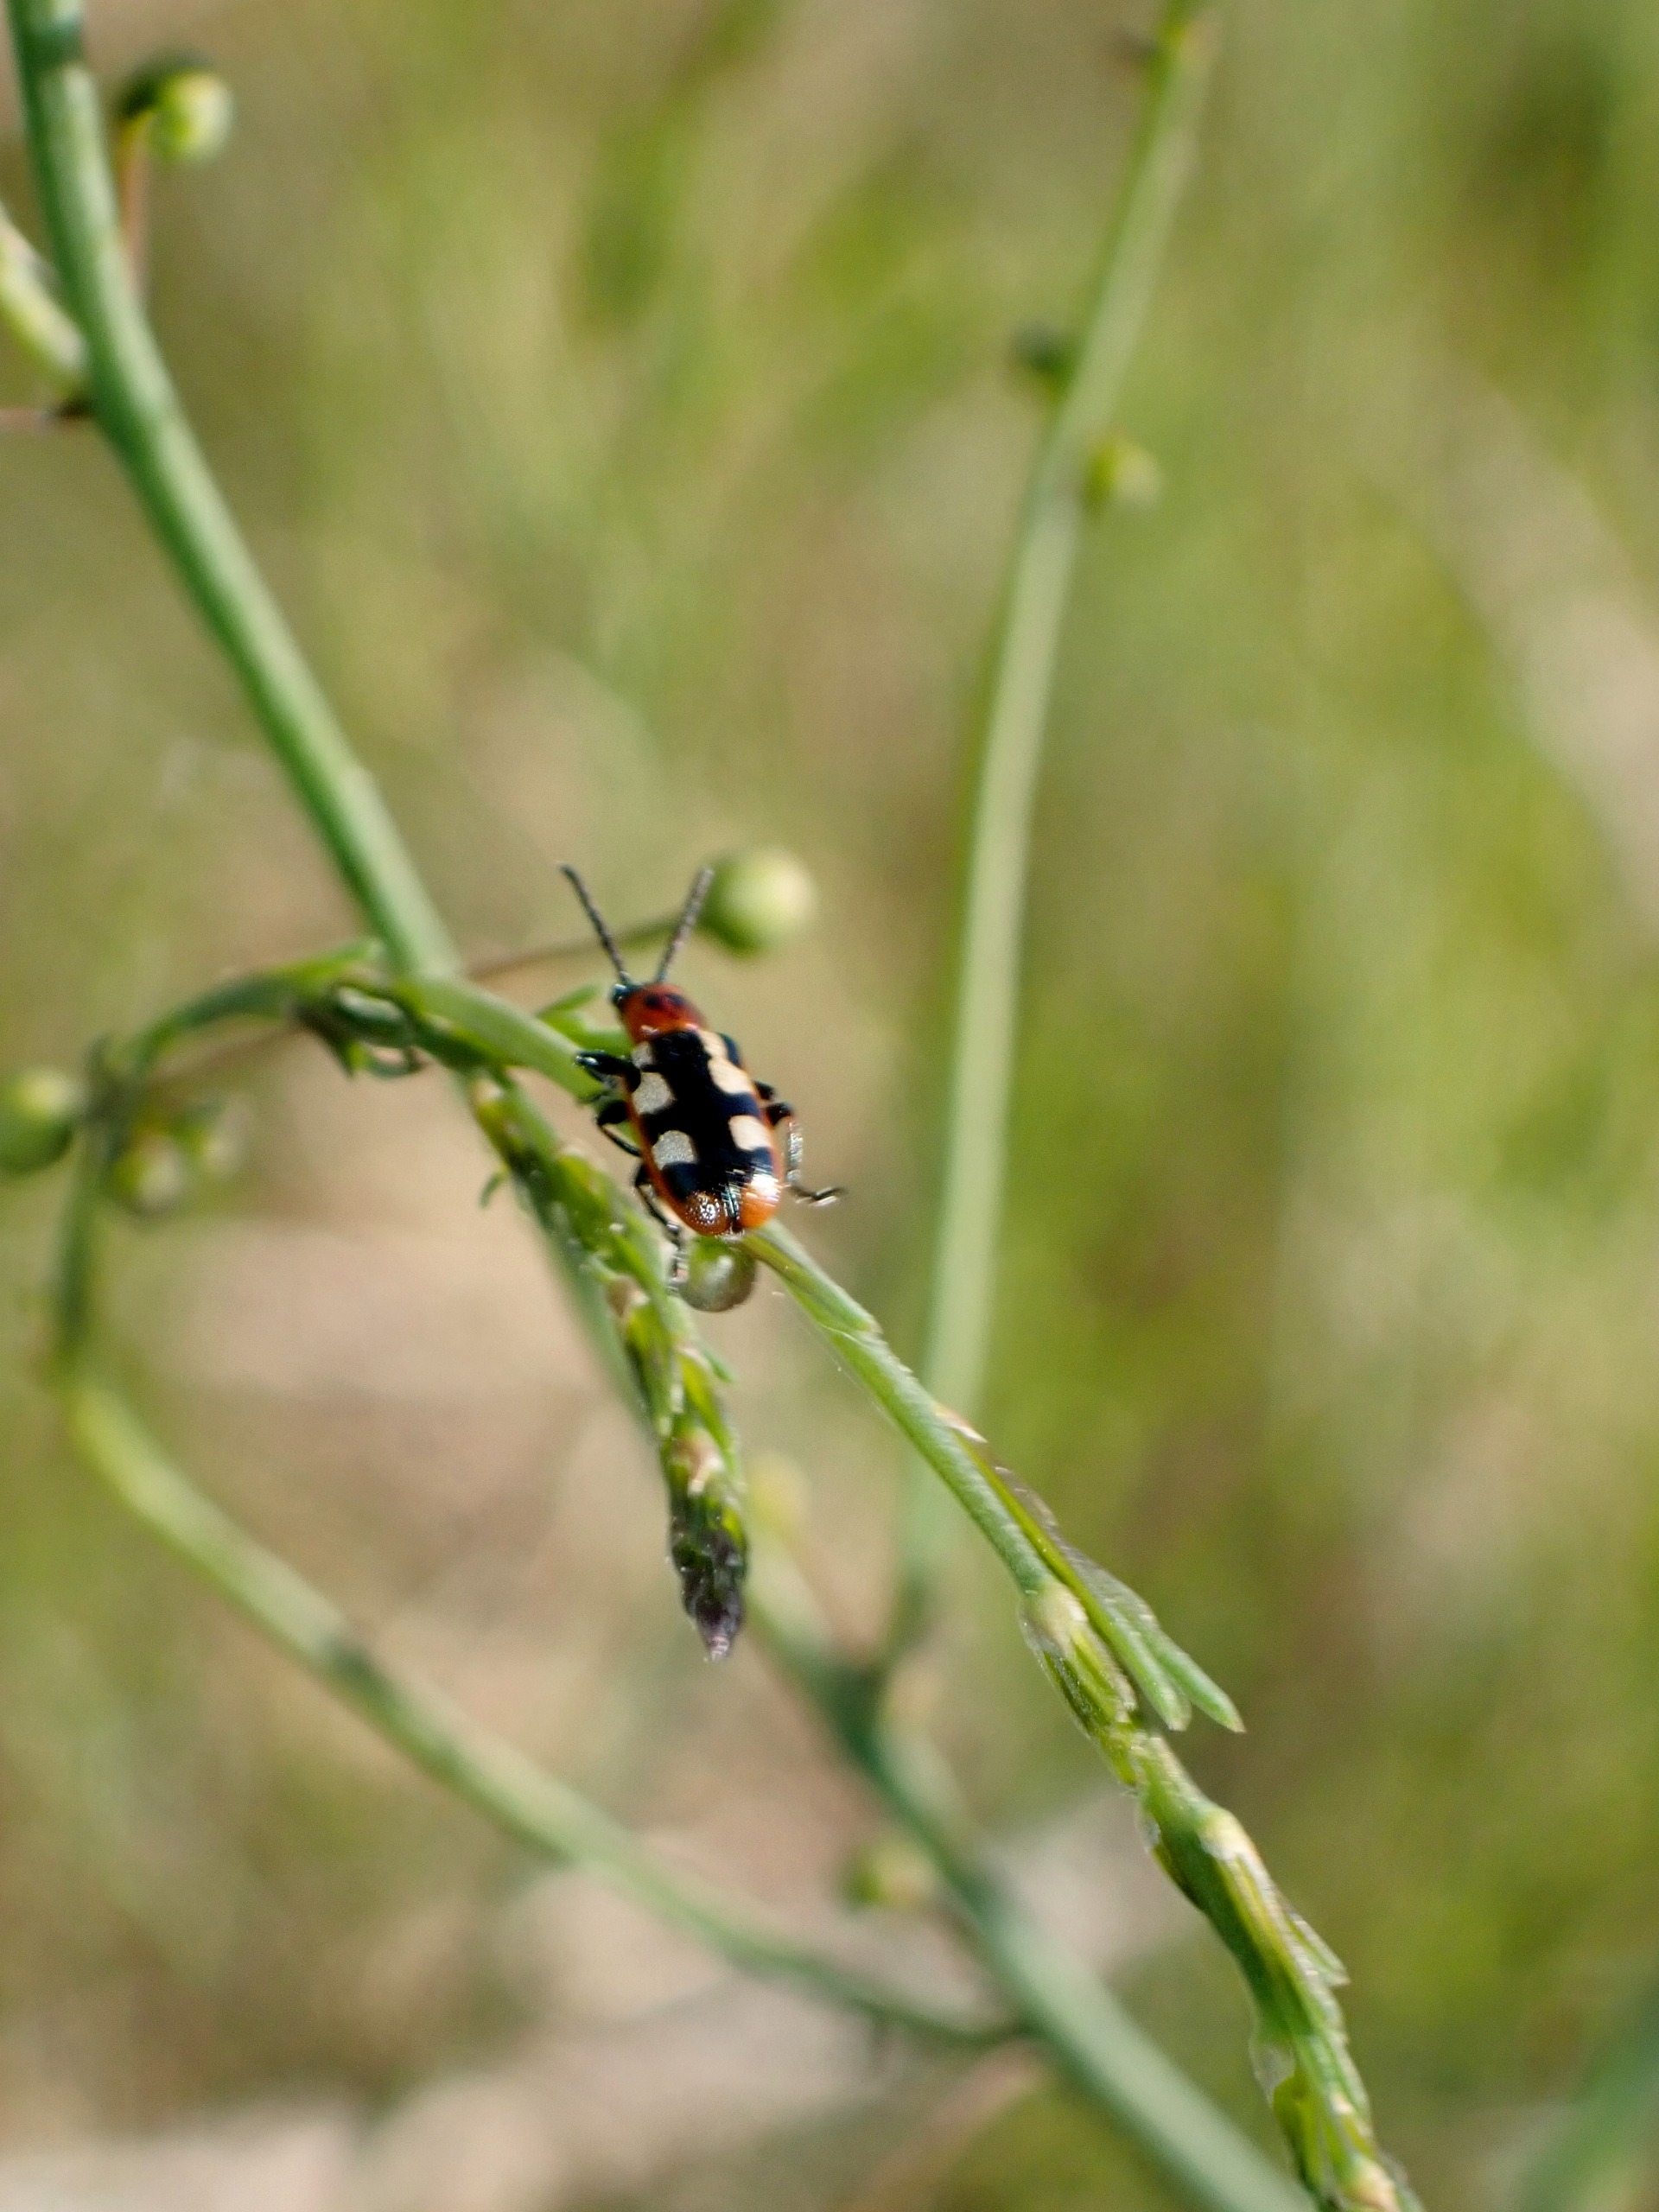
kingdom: Animalia
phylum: Arthropoda
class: Insecta
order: Coleoptera
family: Chrysomelidae
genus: Crioceris
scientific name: Crioceris asparagi
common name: Gulplettet aspargesbille
